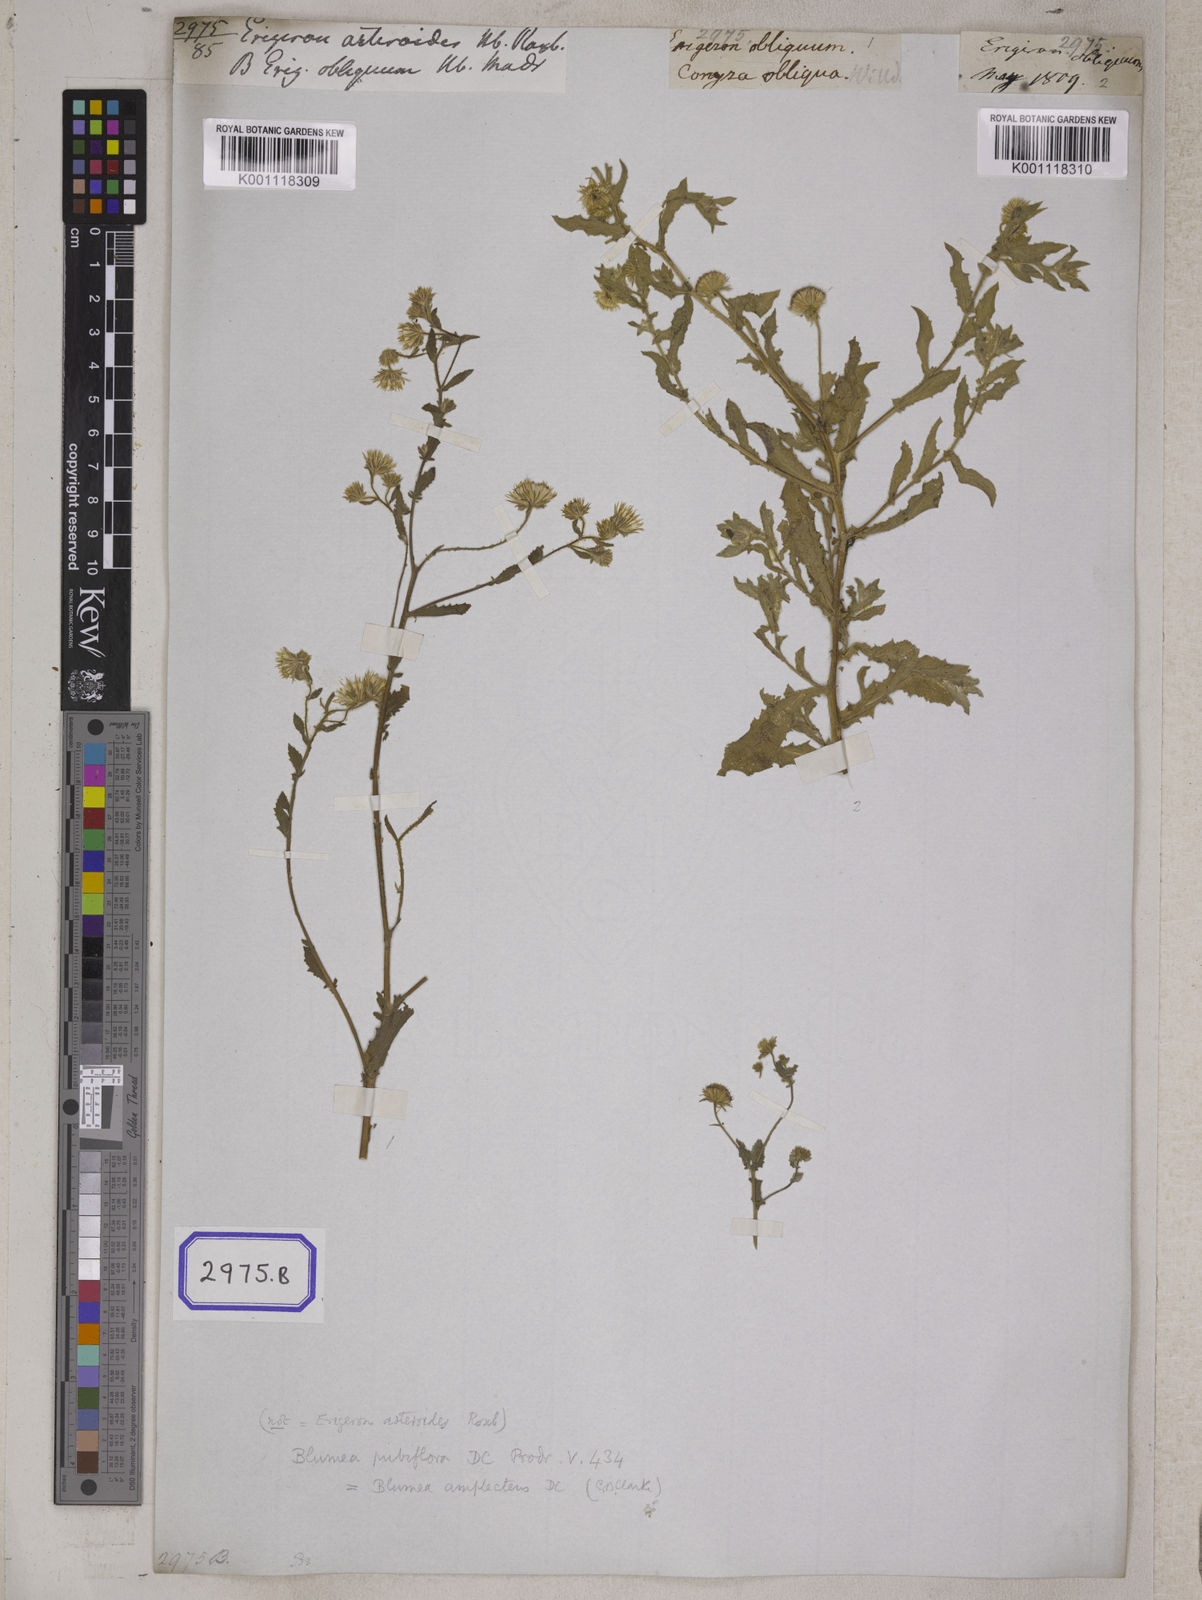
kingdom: Plantae
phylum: Tracheophyta
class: Magnoliopsida
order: Asterales
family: Asteraceae
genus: Erigeron
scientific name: Erigeron sublyratus
